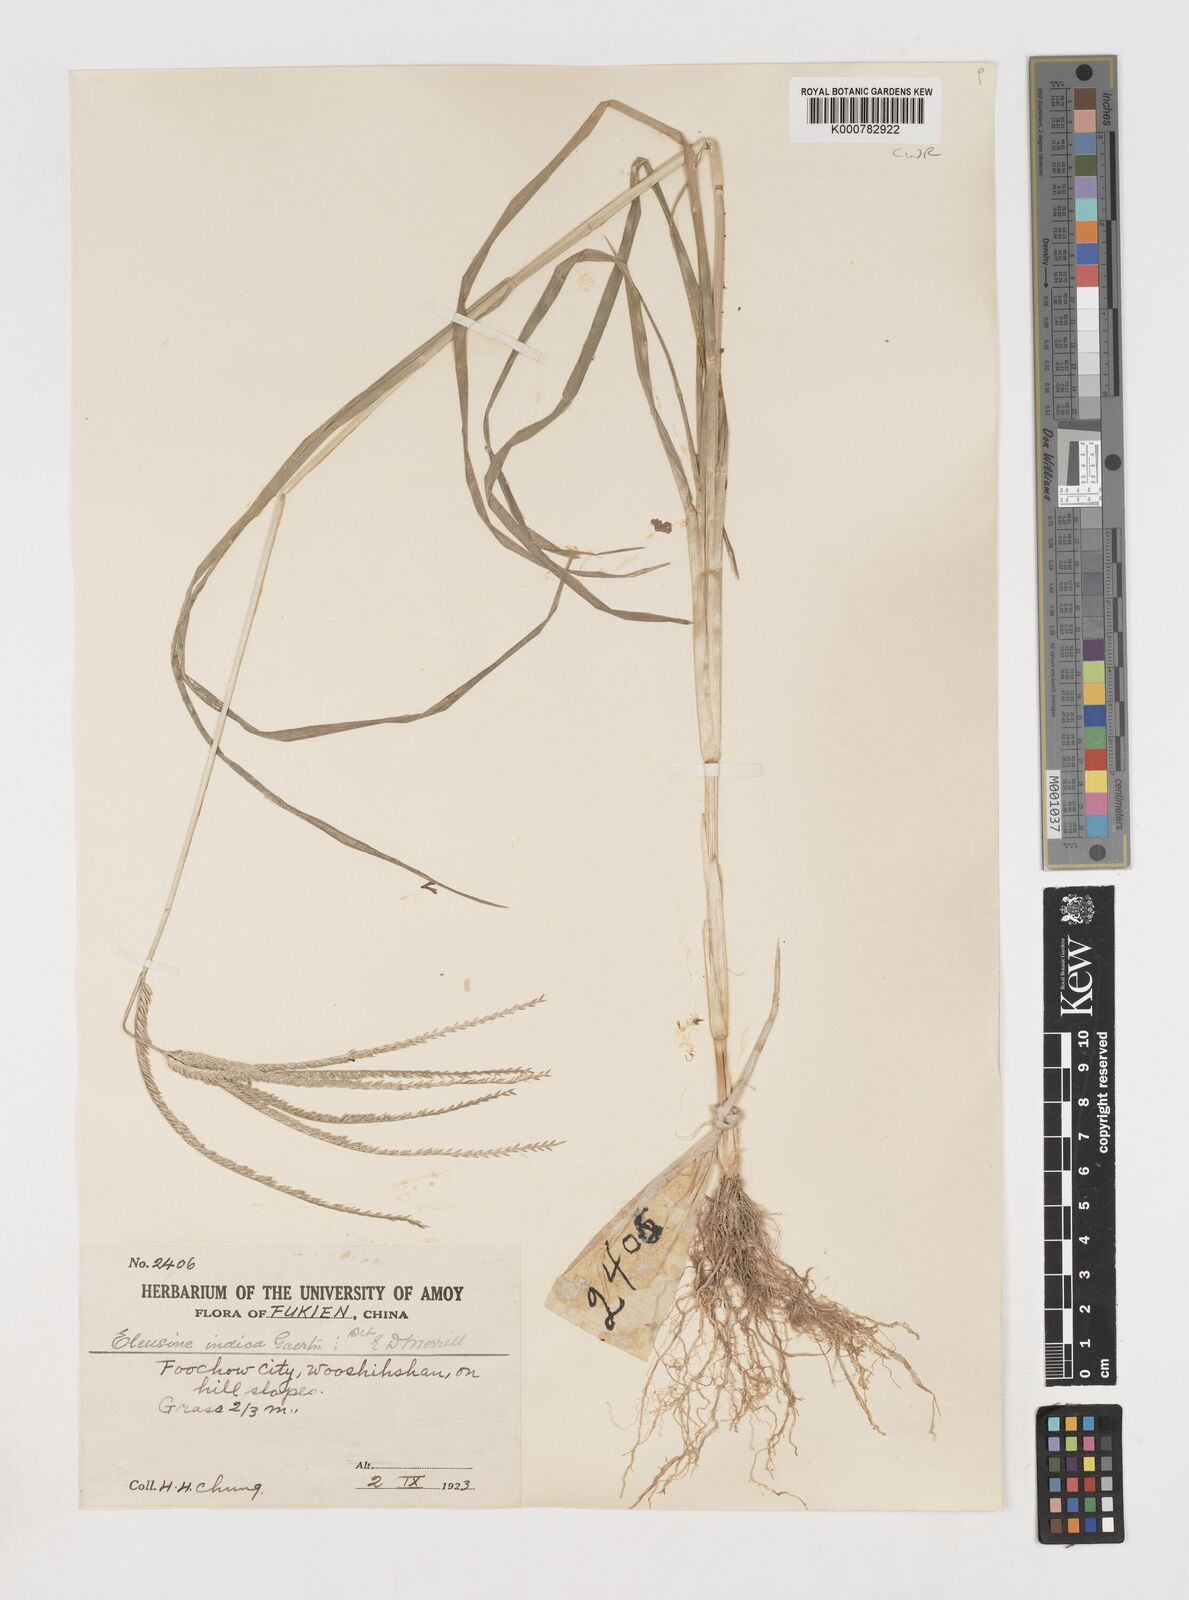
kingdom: Plantae
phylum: Tracheophyta
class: Liliopsida
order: Poales
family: Poaceae
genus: Eleusine
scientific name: Eleusine indica
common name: Yard-grass
